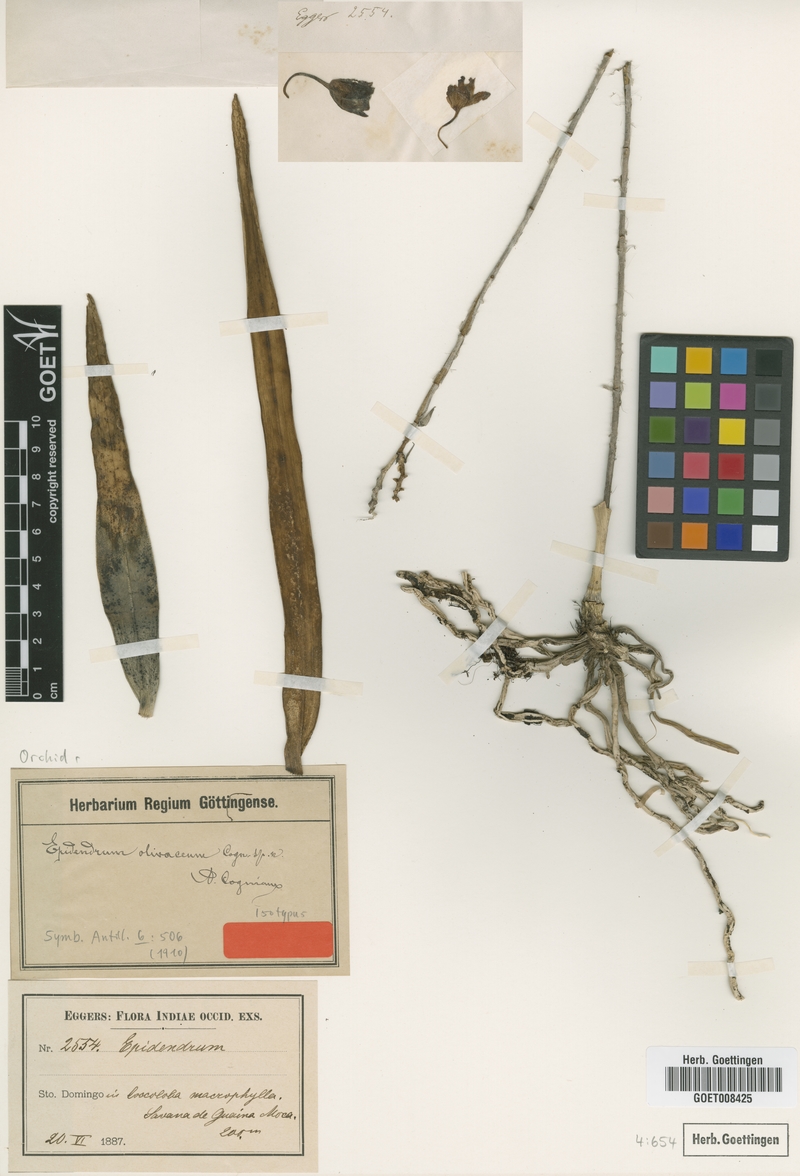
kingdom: Plantae
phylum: Tracheophyta
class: Liliopsida
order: Asparagales
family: Orchidaceae
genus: Psychilis
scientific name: Psychilis olivacea
